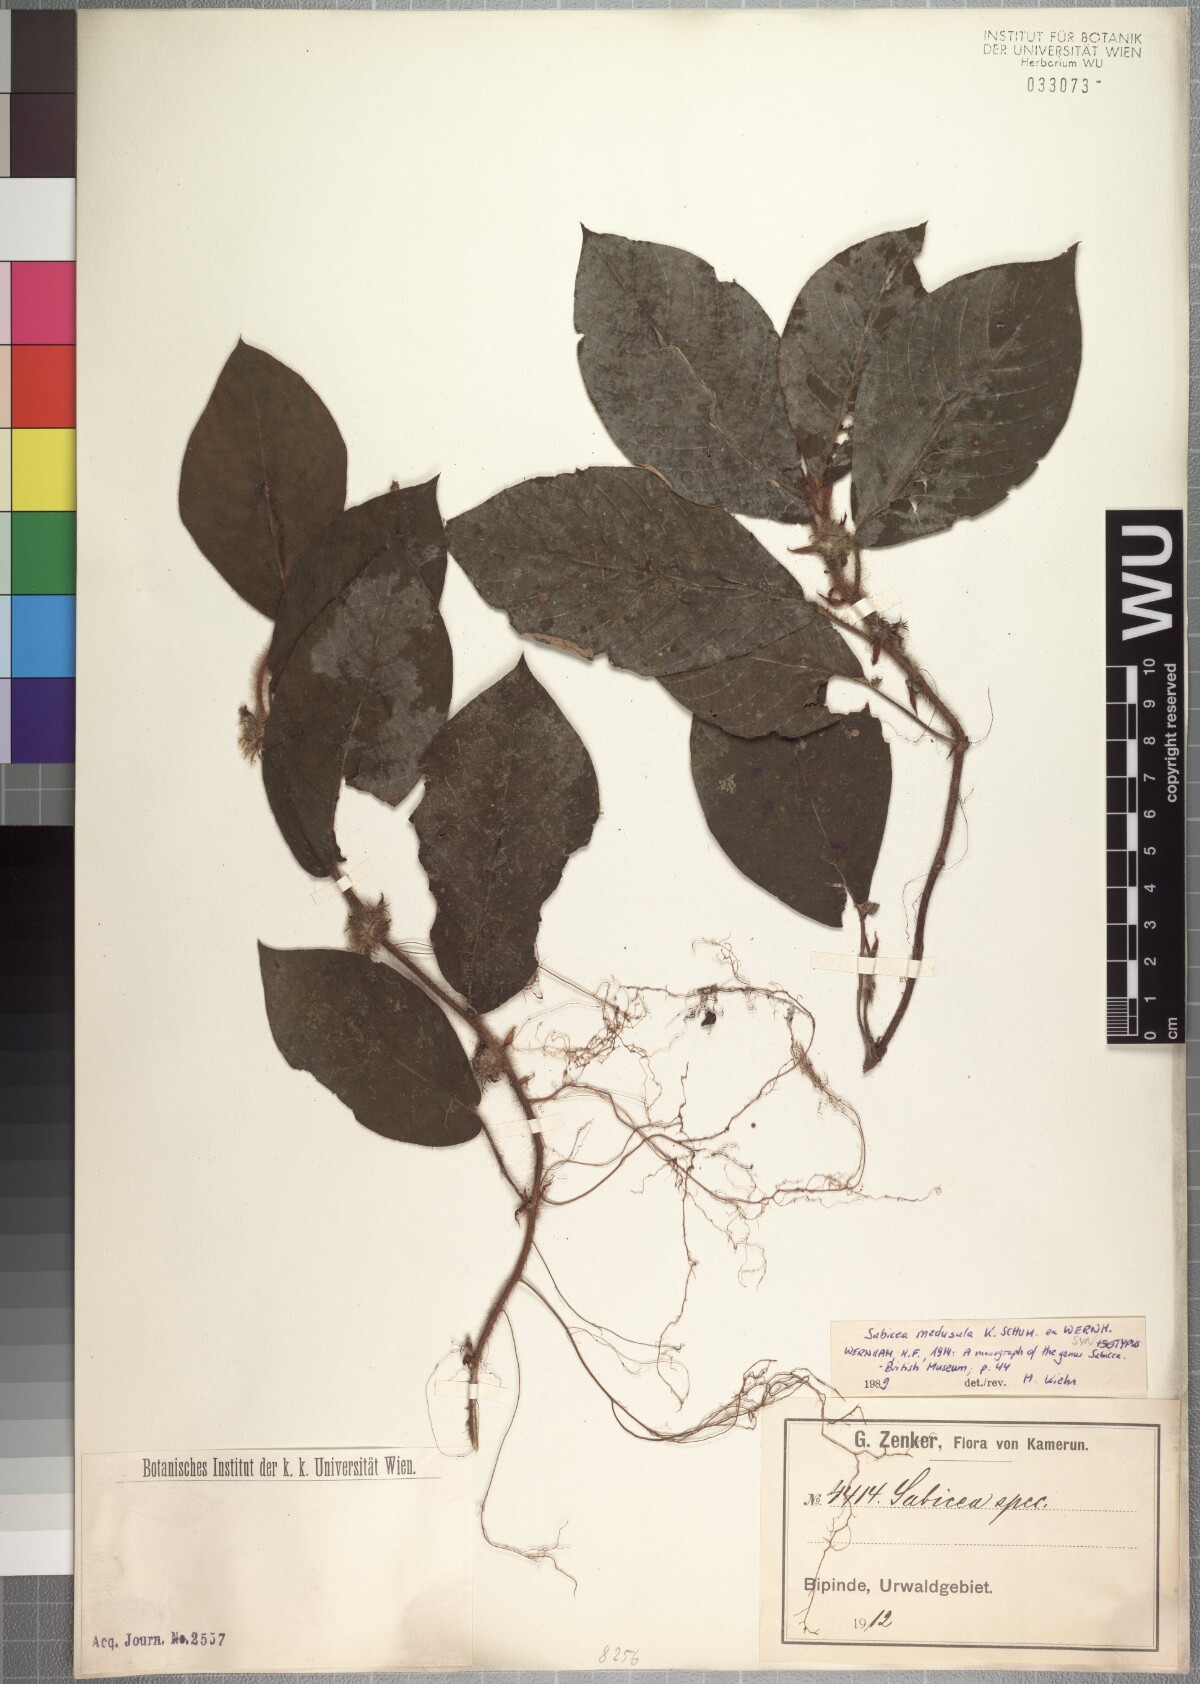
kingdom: Plantae
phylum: Tracheophyta
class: Magnoliopsida
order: Gentianales
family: Rubiaceae
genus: Sabicea
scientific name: Sabicea medusula
